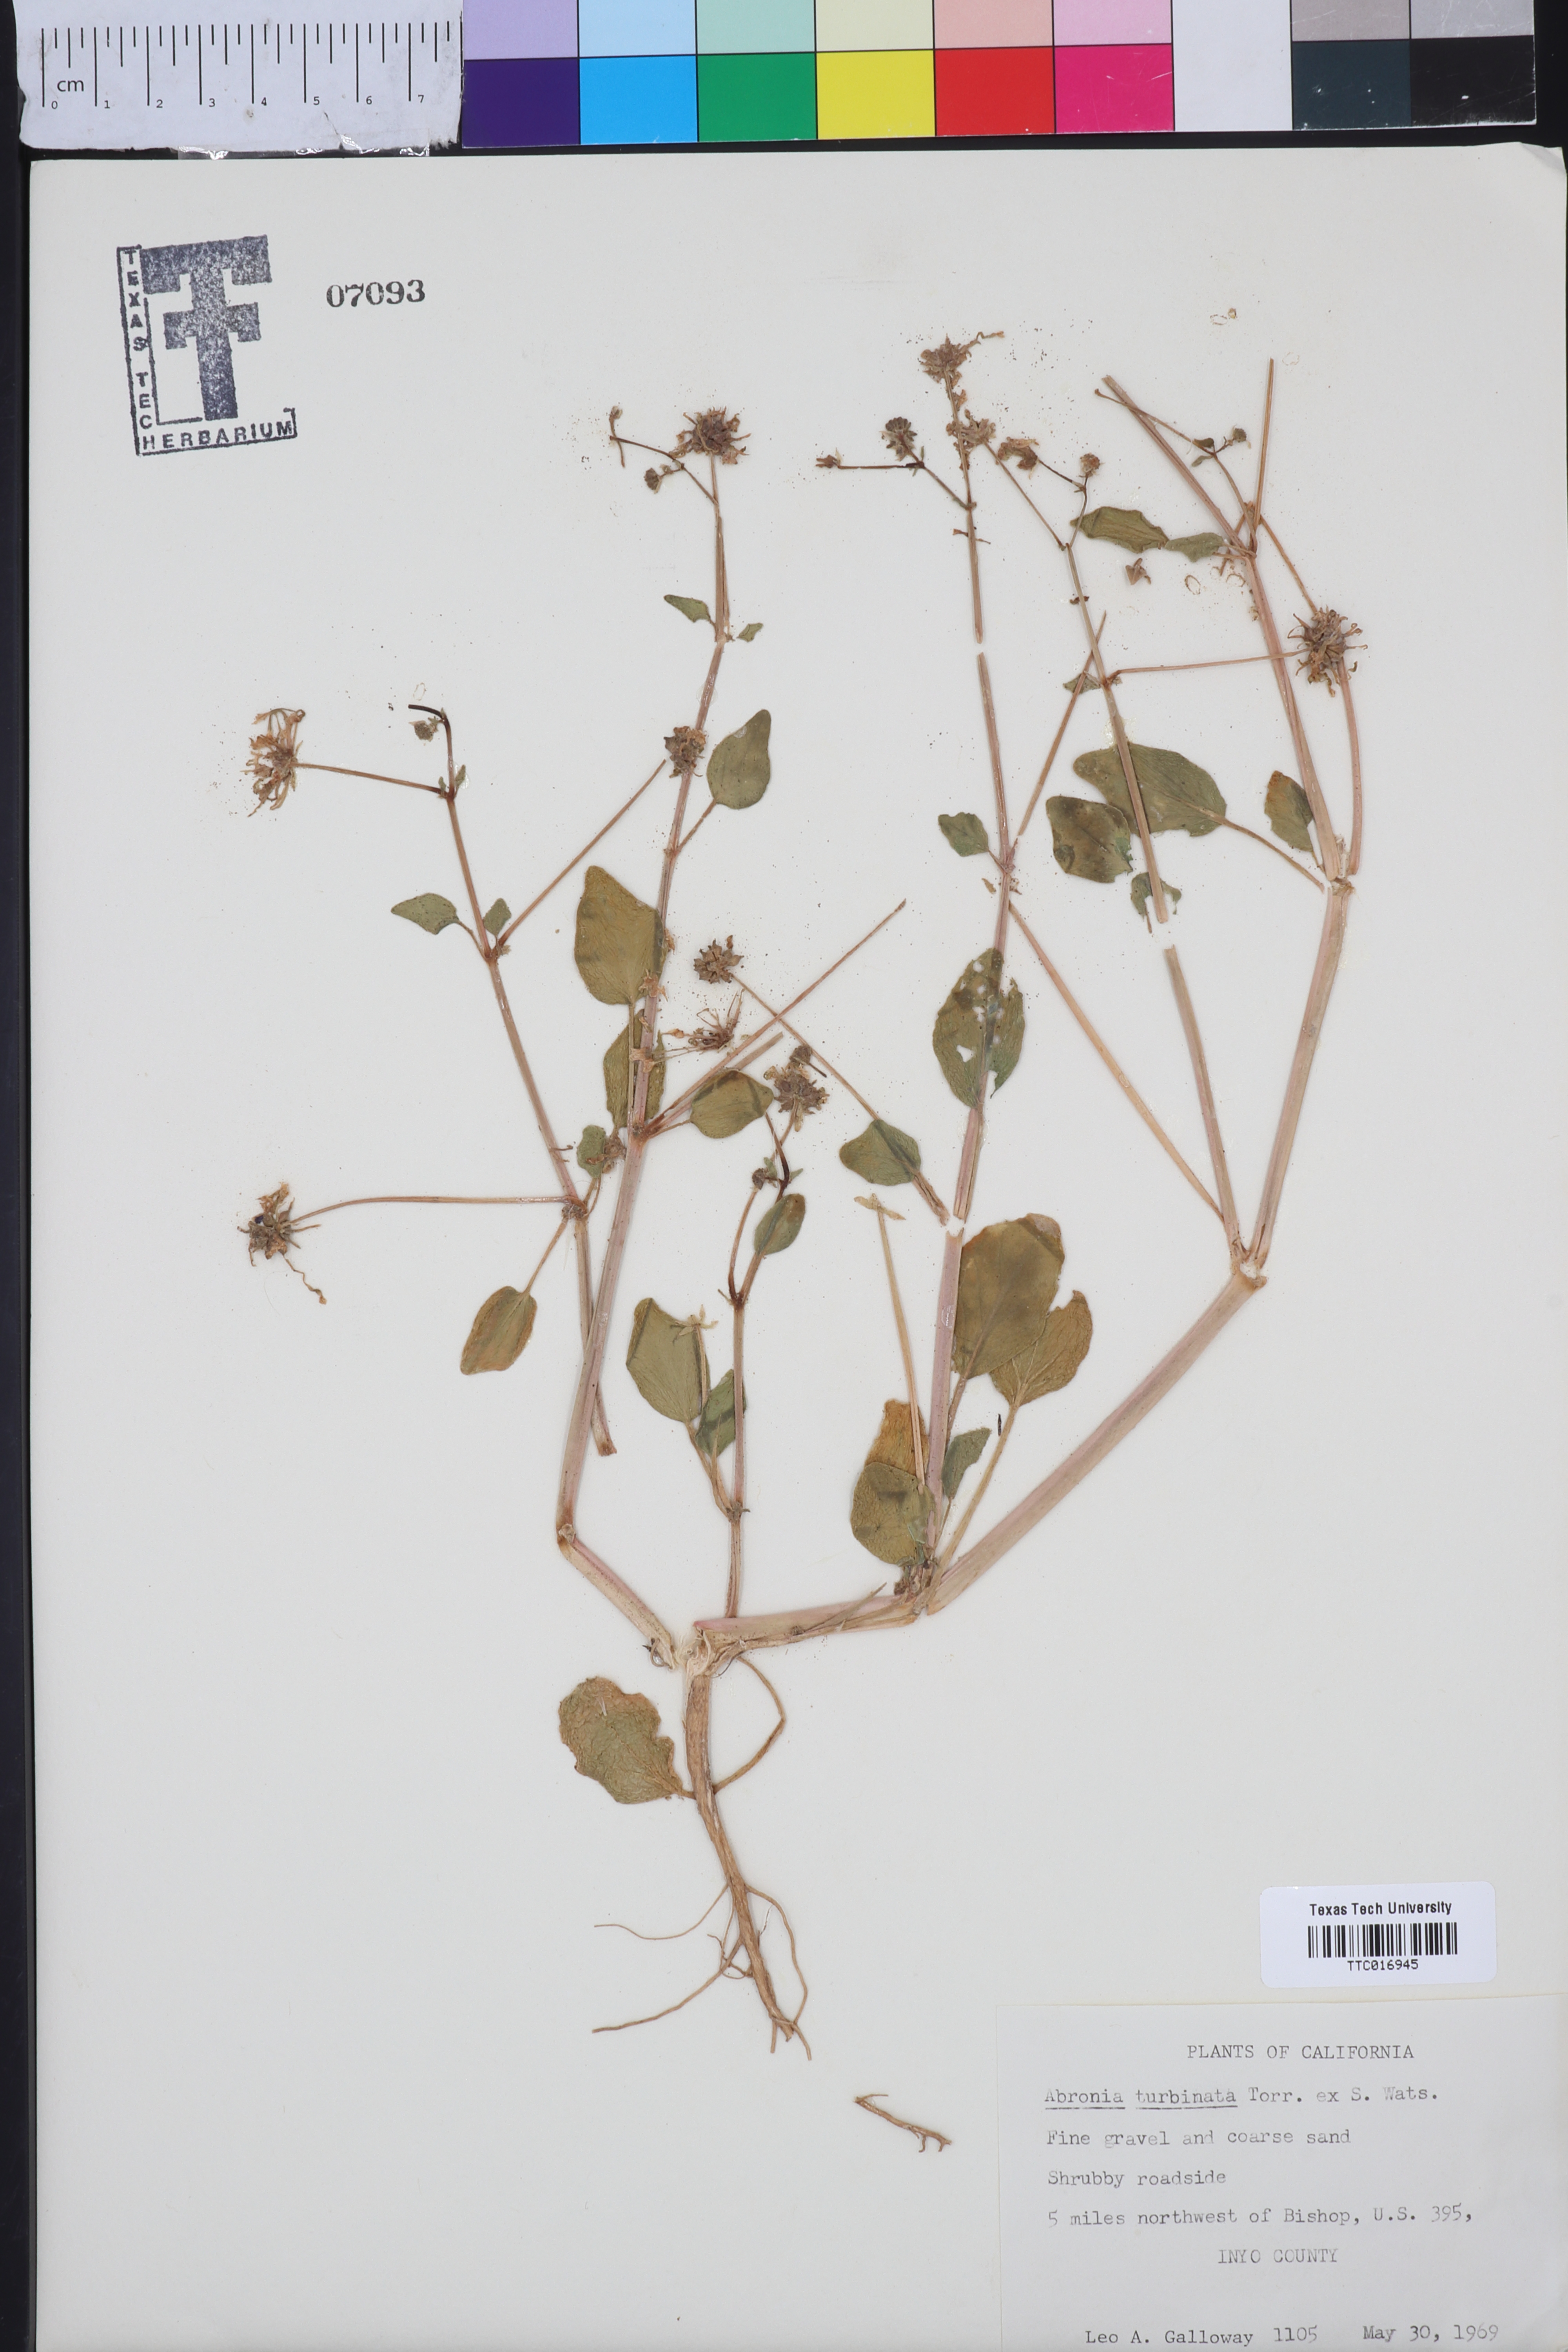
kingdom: Plantae
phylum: Tracheophyta
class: Magnoliopsida
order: Caryophyllales
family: Nyctaginaceae
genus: Abronia
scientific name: Abronia turbinata
